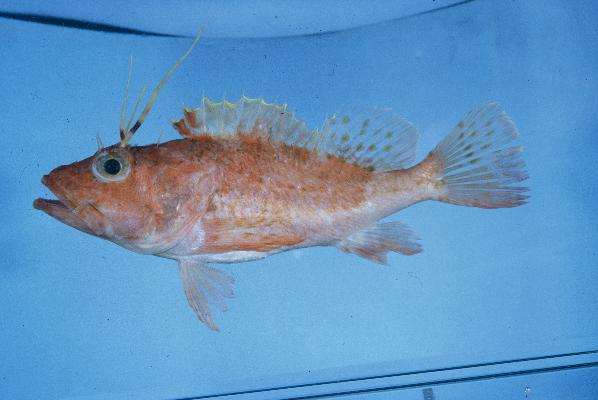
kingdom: Animalia
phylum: Chordata
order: Scorpaeniformes
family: Scorpaenidae
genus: Pontinus
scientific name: Pontinus nigerimum
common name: Blacklash scorpionfish
